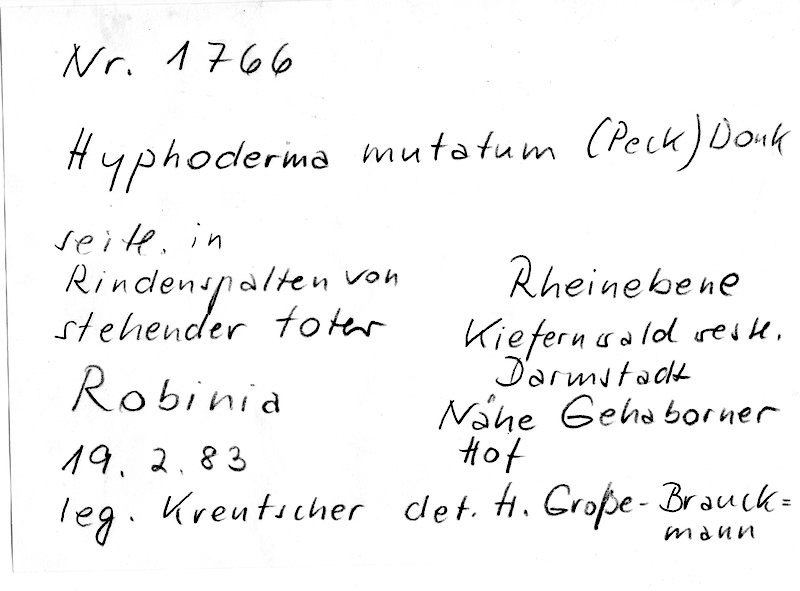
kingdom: Plantae
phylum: Tracheophyta
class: Magnoliopsida
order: Fabales
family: Fabaceae
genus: Robinia
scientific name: Robinia
